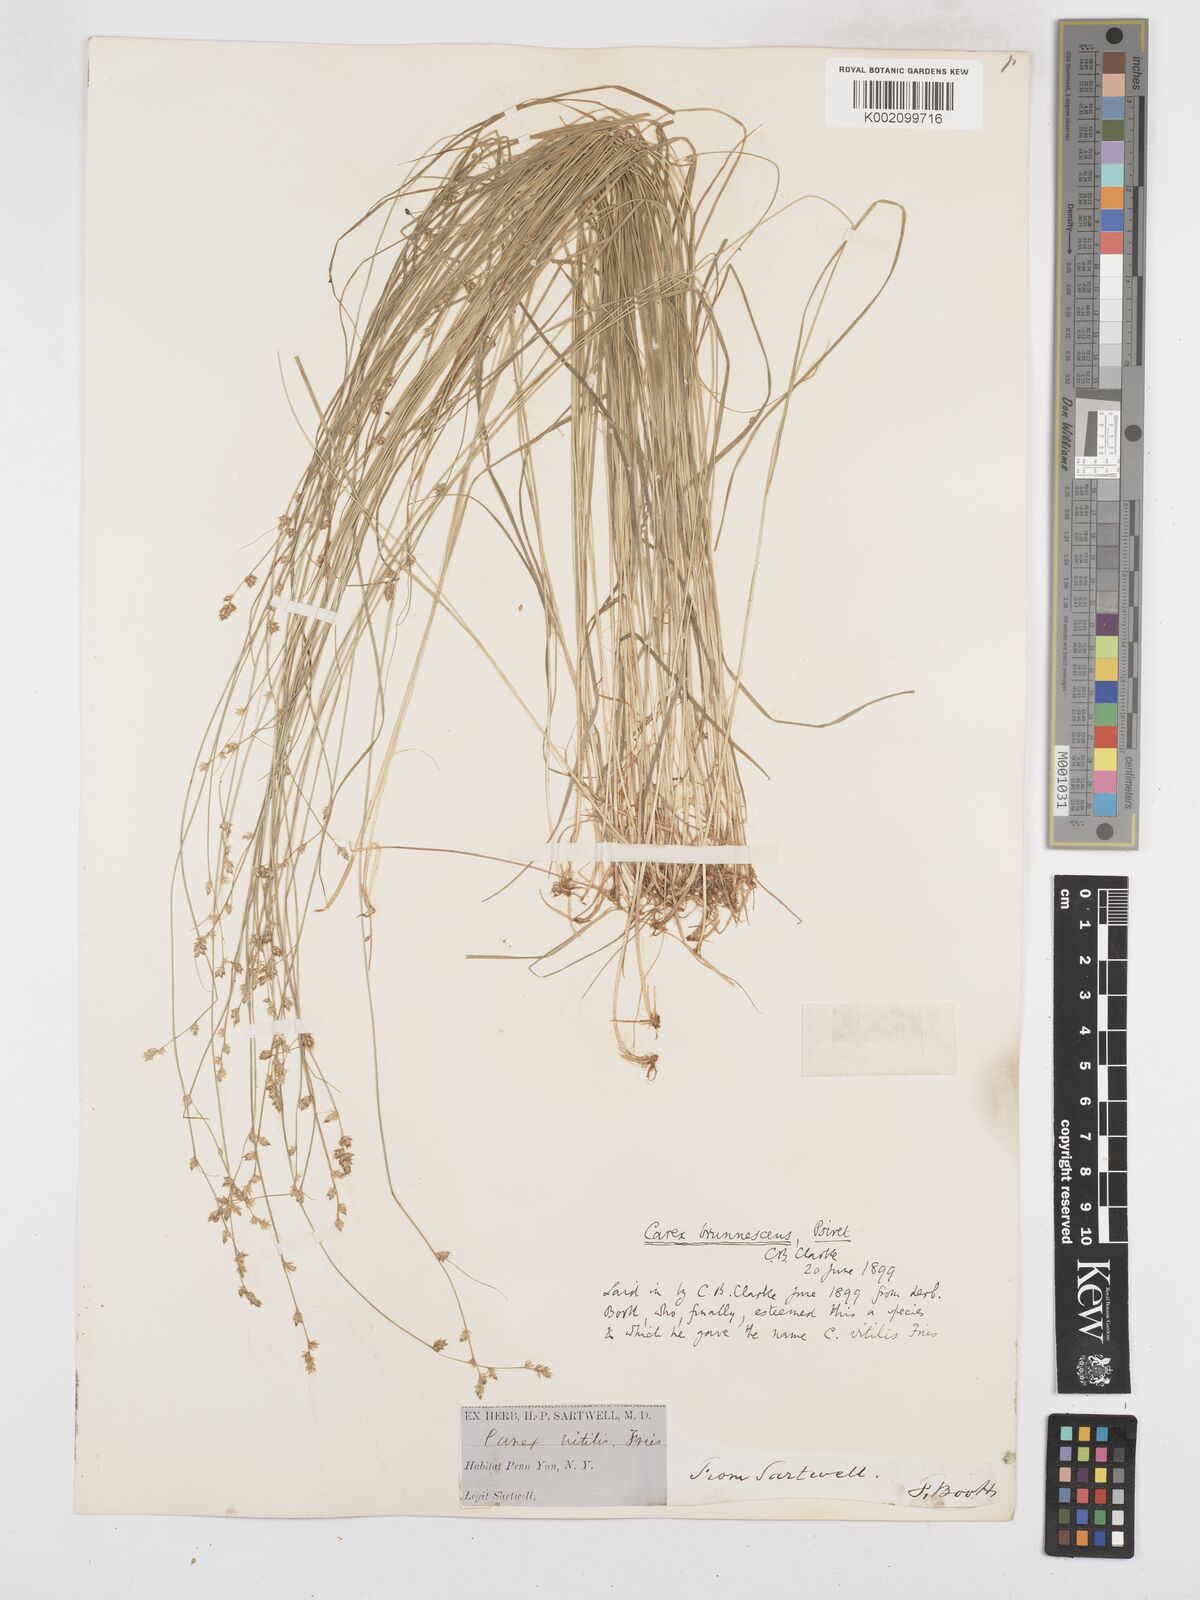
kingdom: Plantae
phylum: Tracheophyta
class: Liliopsida
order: Poales
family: Cyperaceae
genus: Carex
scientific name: Carex brunnescens
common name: Brown sedge
